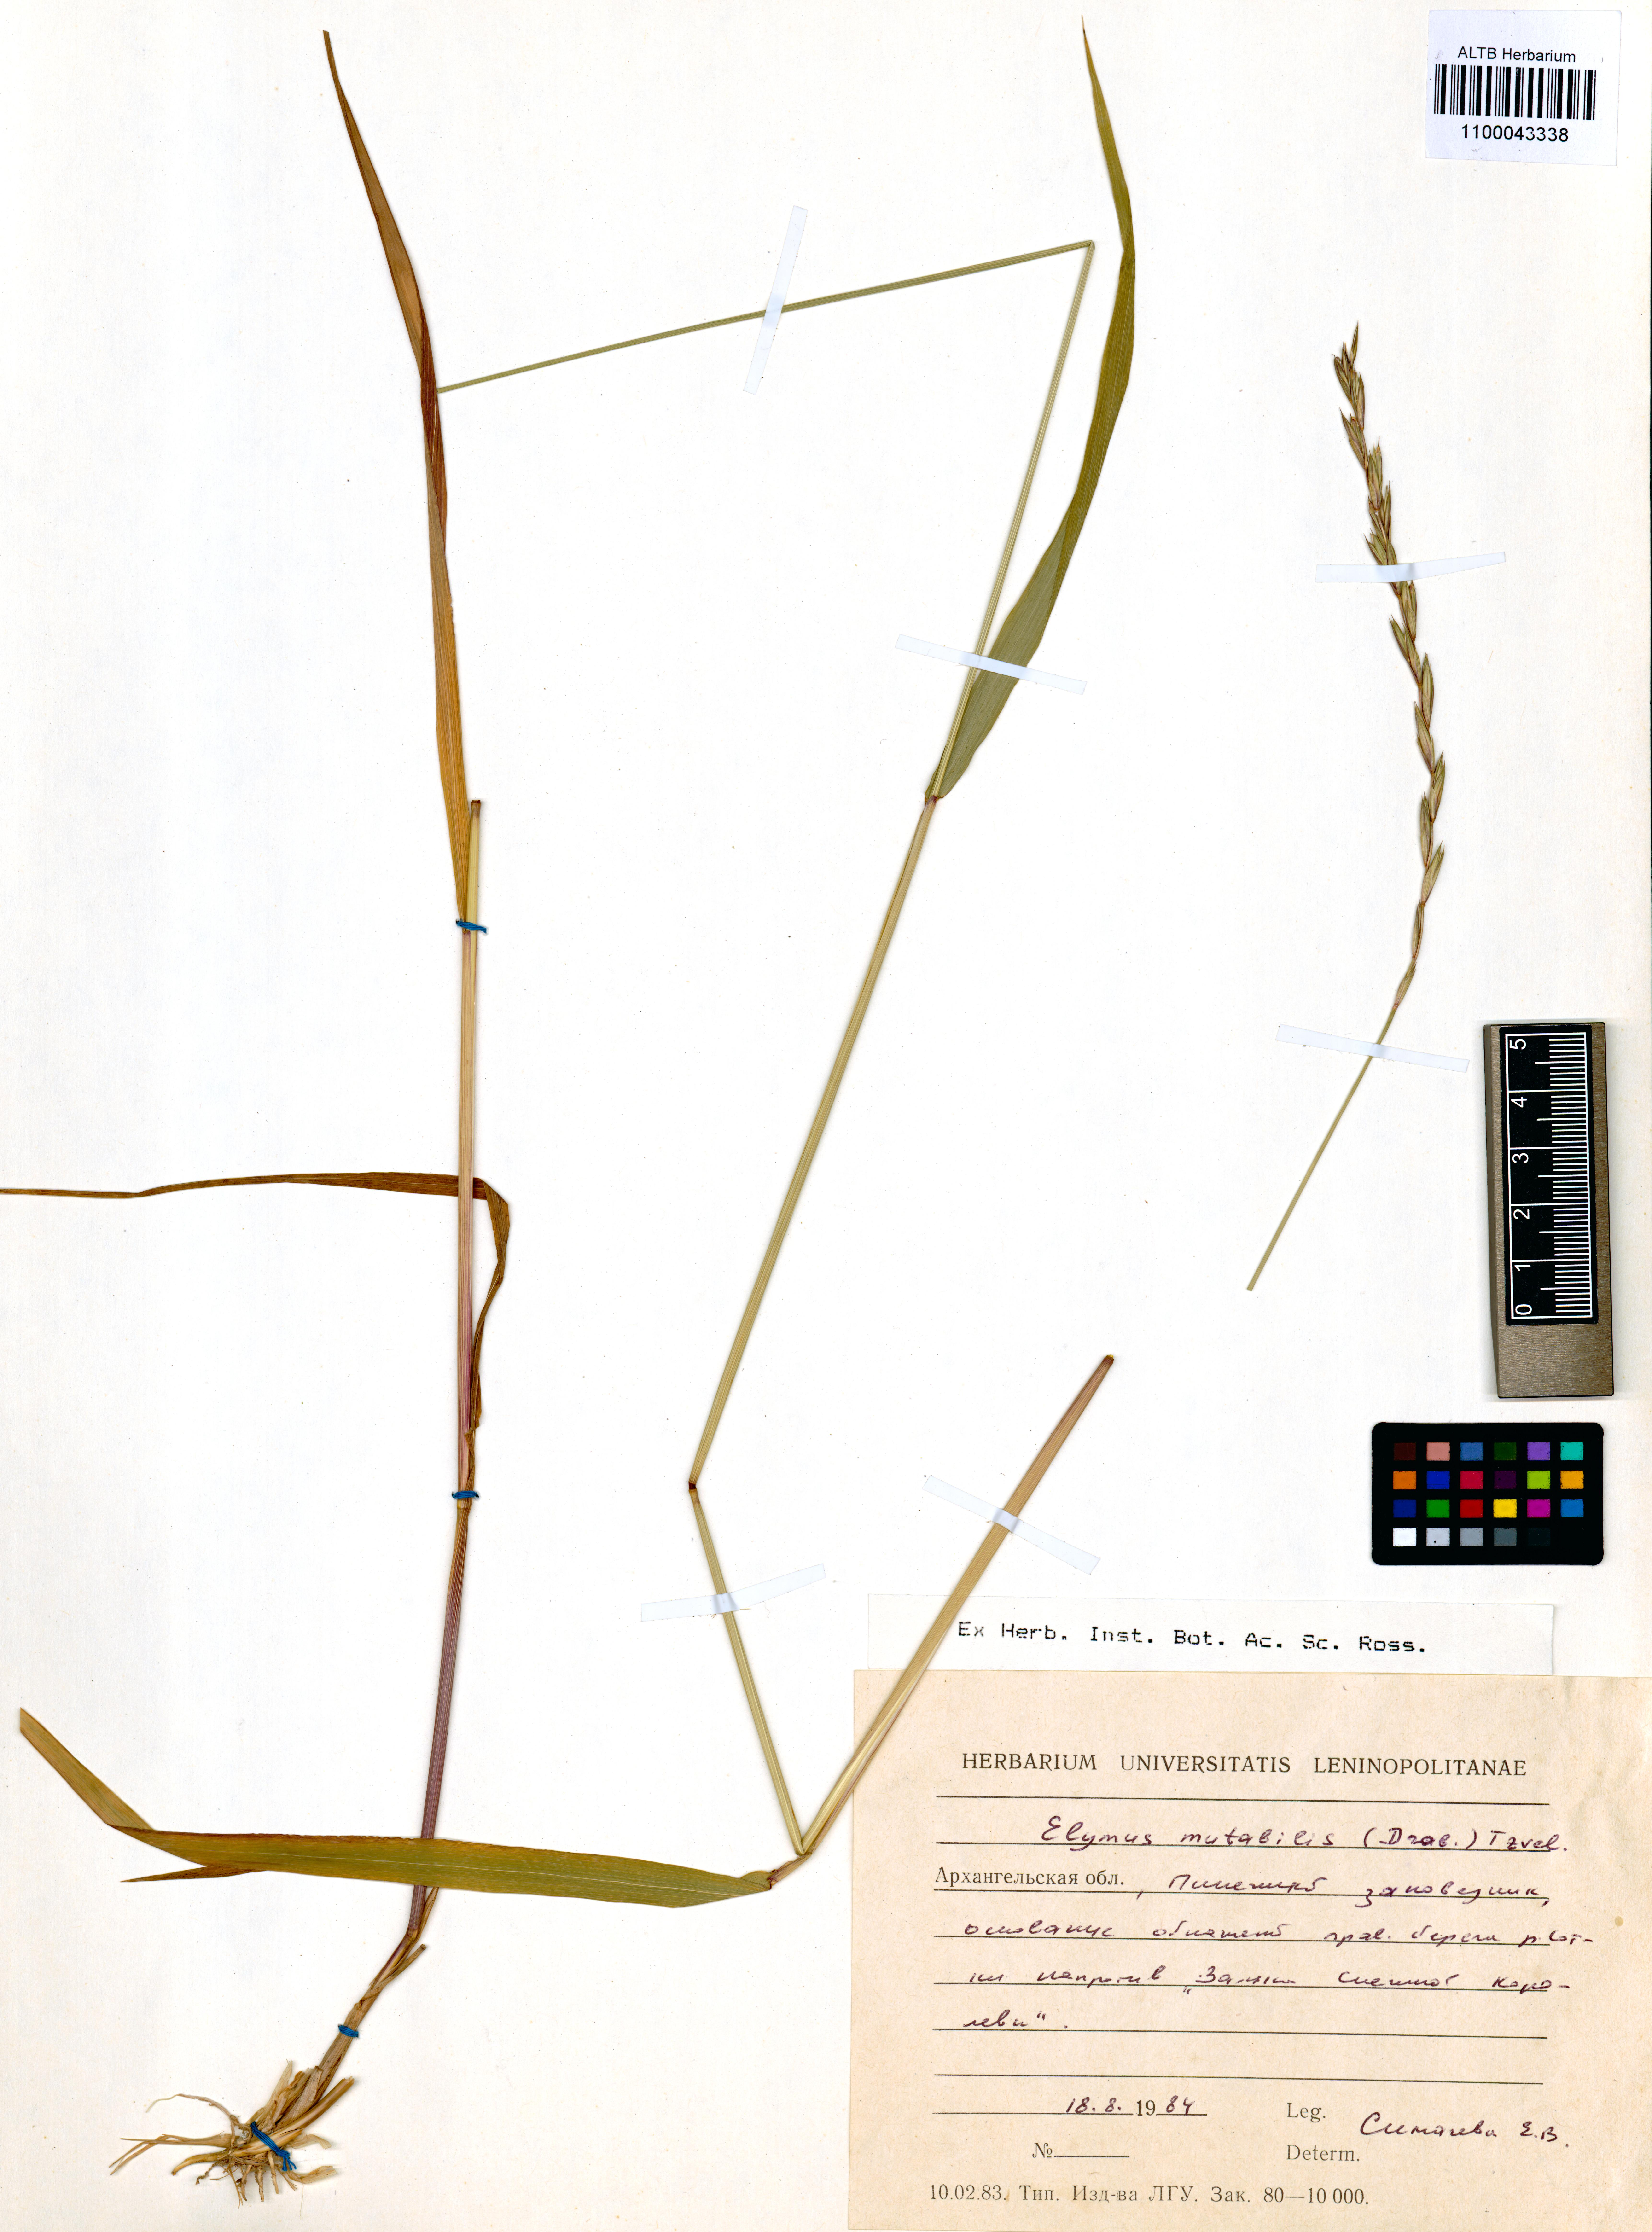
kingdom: Plantae
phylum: Tracheophyta
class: Liliopsida
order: Poales
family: Poaceae
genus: Elymus
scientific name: Elymus mutabilis
